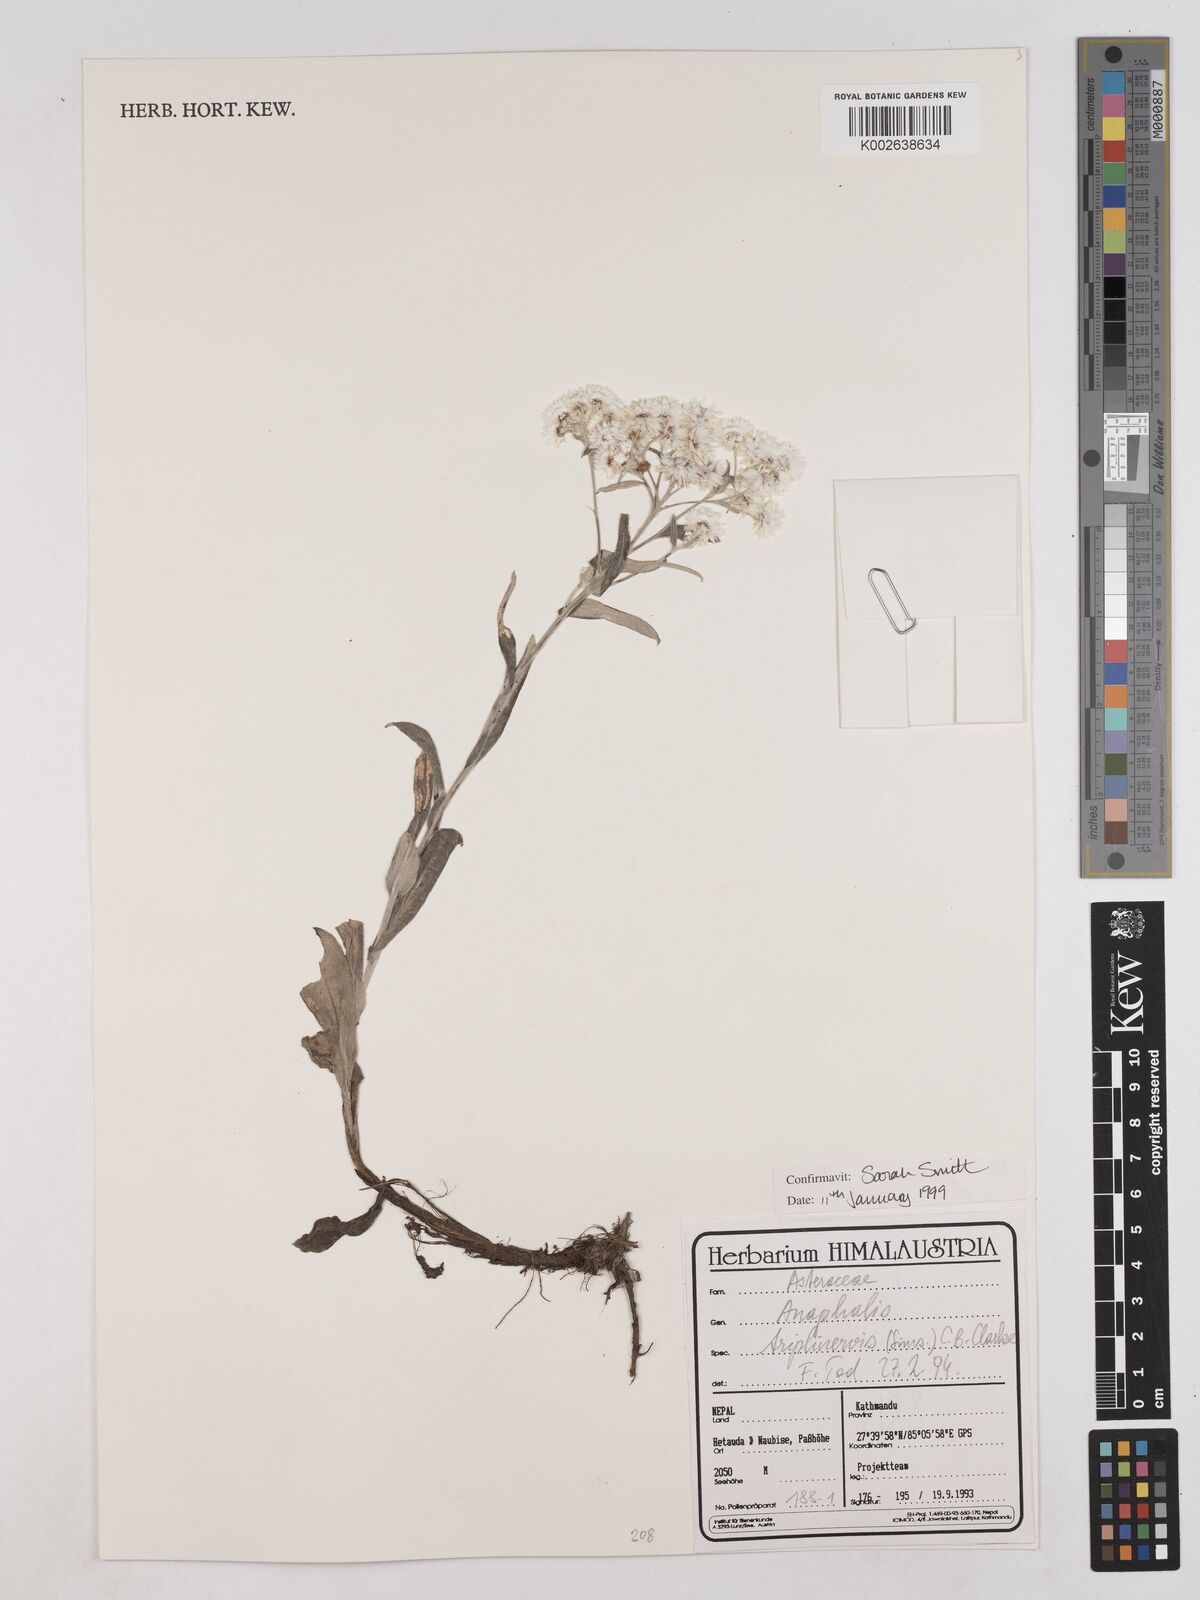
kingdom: Plantae
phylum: Tracheophyta
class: Magnoliopsida
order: Asterales
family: Asteraceae
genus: Anaphalis
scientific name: Anaphalis triplinervis
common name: Pearly everlasting
